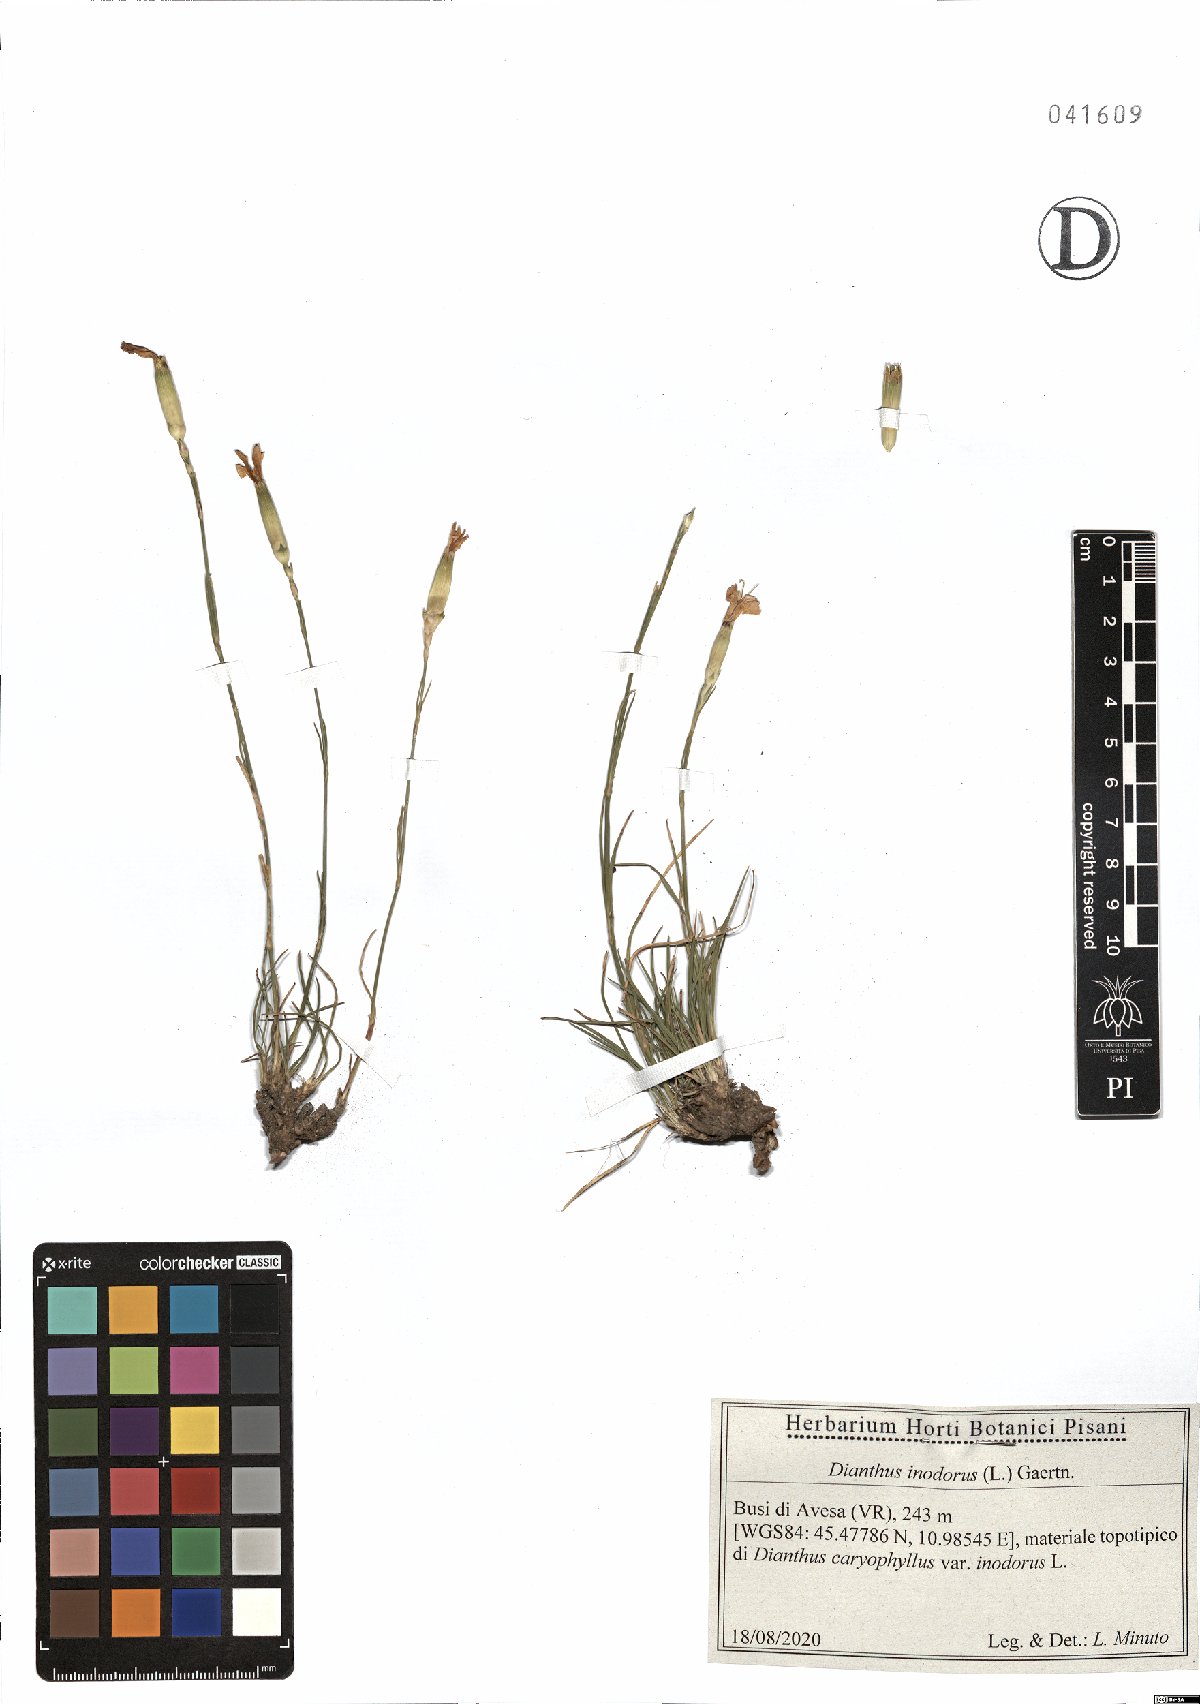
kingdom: Plantae
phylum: Tracheophyta
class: Magnoliopsida
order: Caryophyllales
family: Caryophyllaceae
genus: Dianthus
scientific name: Dianthus sylvestris
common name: Wood pink
